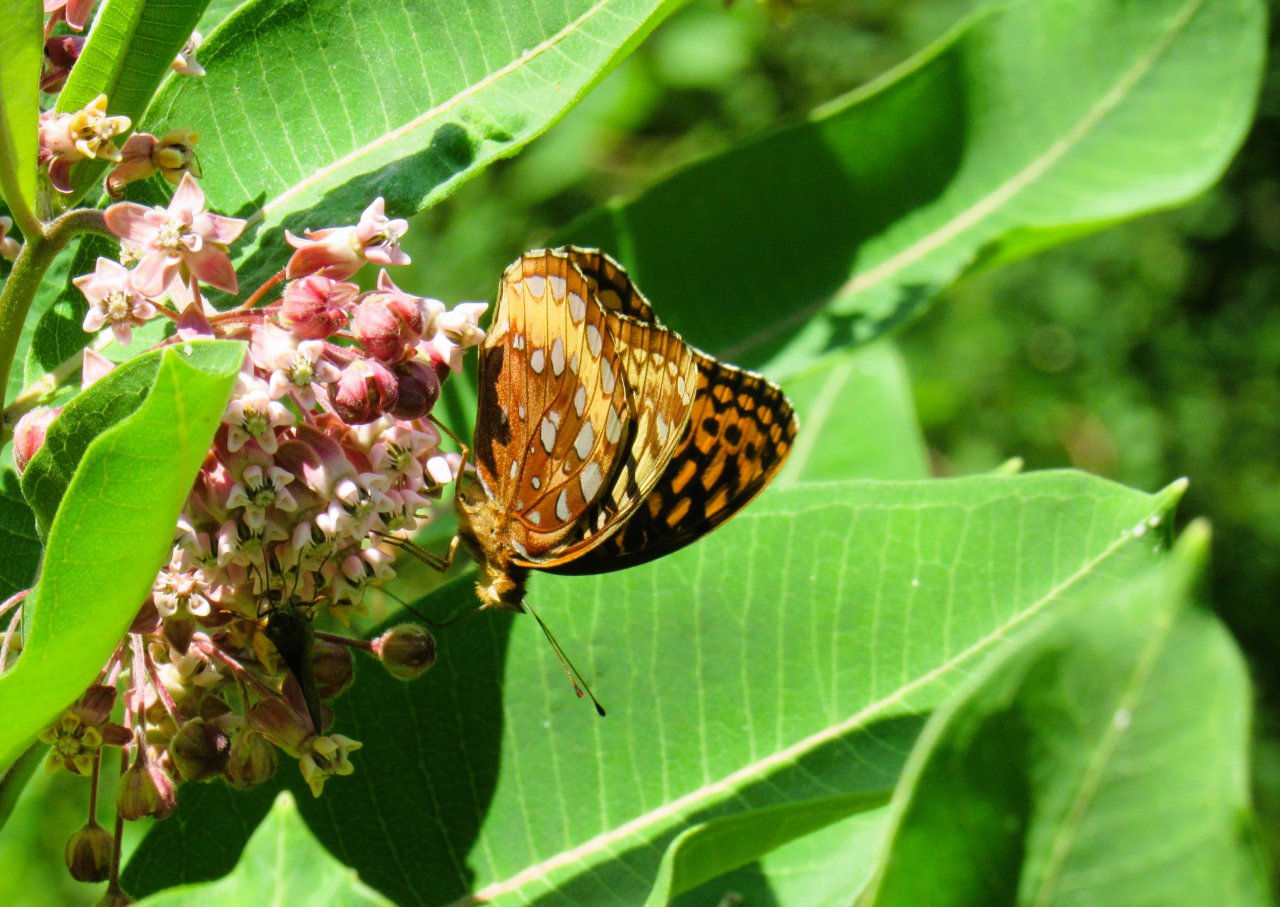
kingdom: Animalia
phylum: Arthropoda
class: Insecta
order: Lepidoptera
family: Nymphalidae
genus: Speyeria
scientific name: Speyeria cybele
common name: Great Spangled Fritillary
